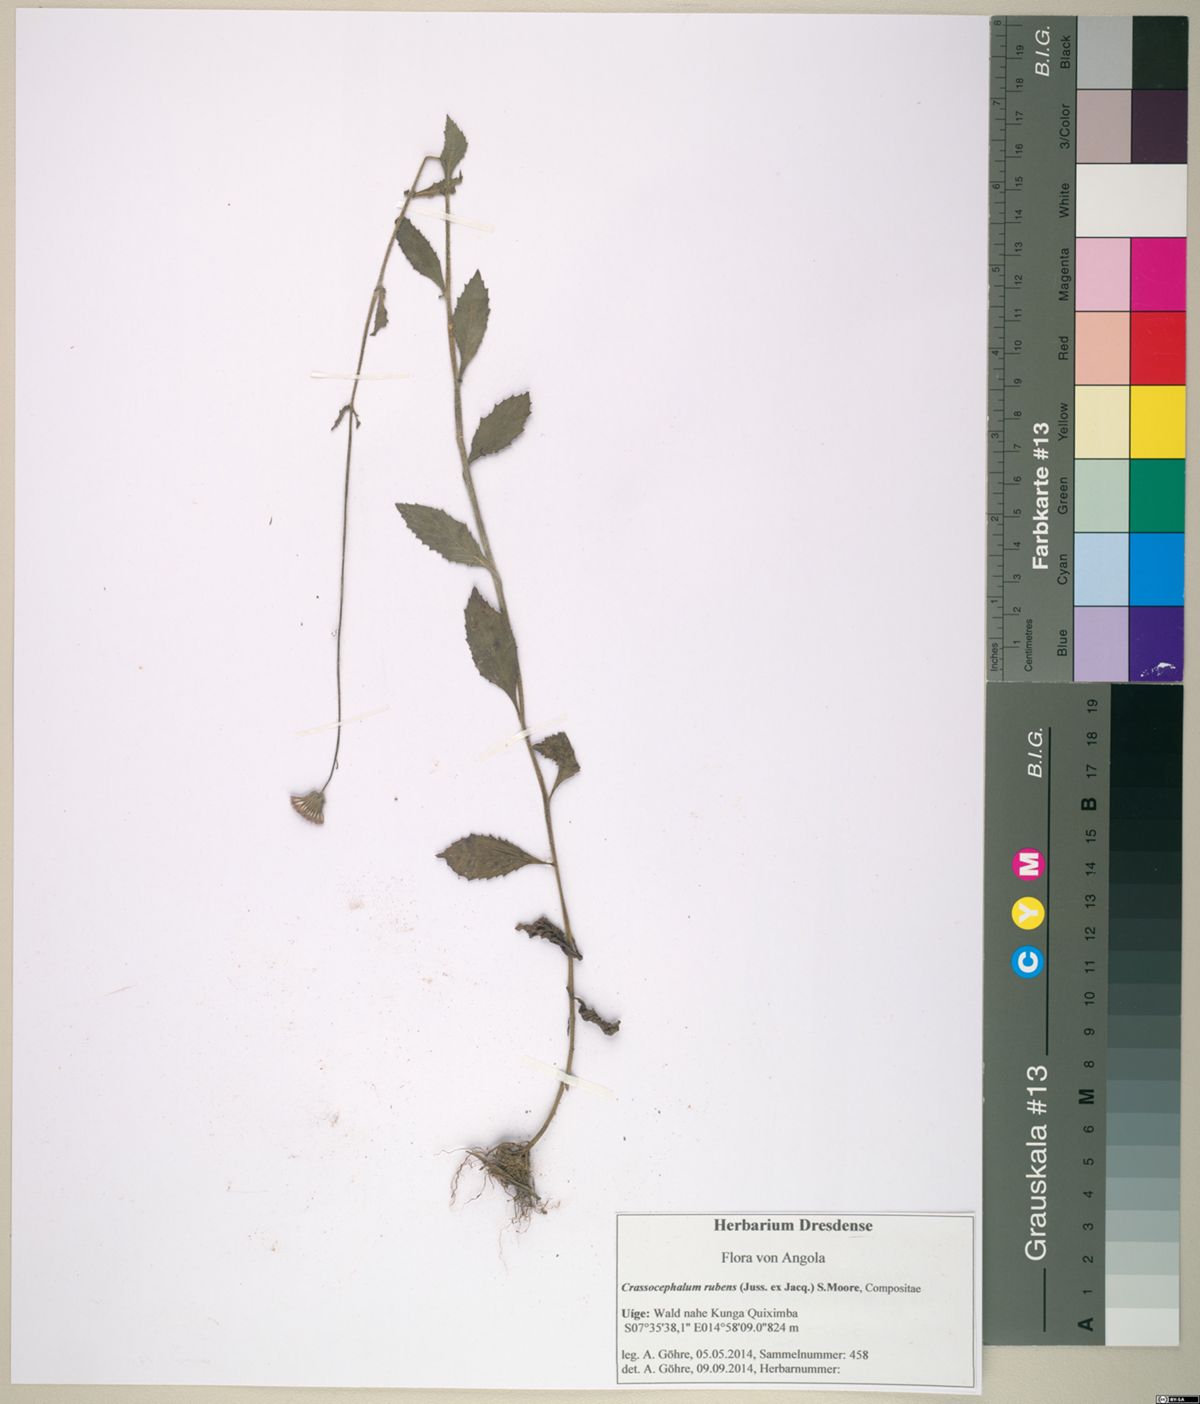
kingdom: Plantae
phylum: Tracheophyta
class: Magnoliopsida
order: Asterales
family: Asteraceae
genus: Crassocephalum
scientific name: Crassocephalum rubens
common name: Yoruban bologi
